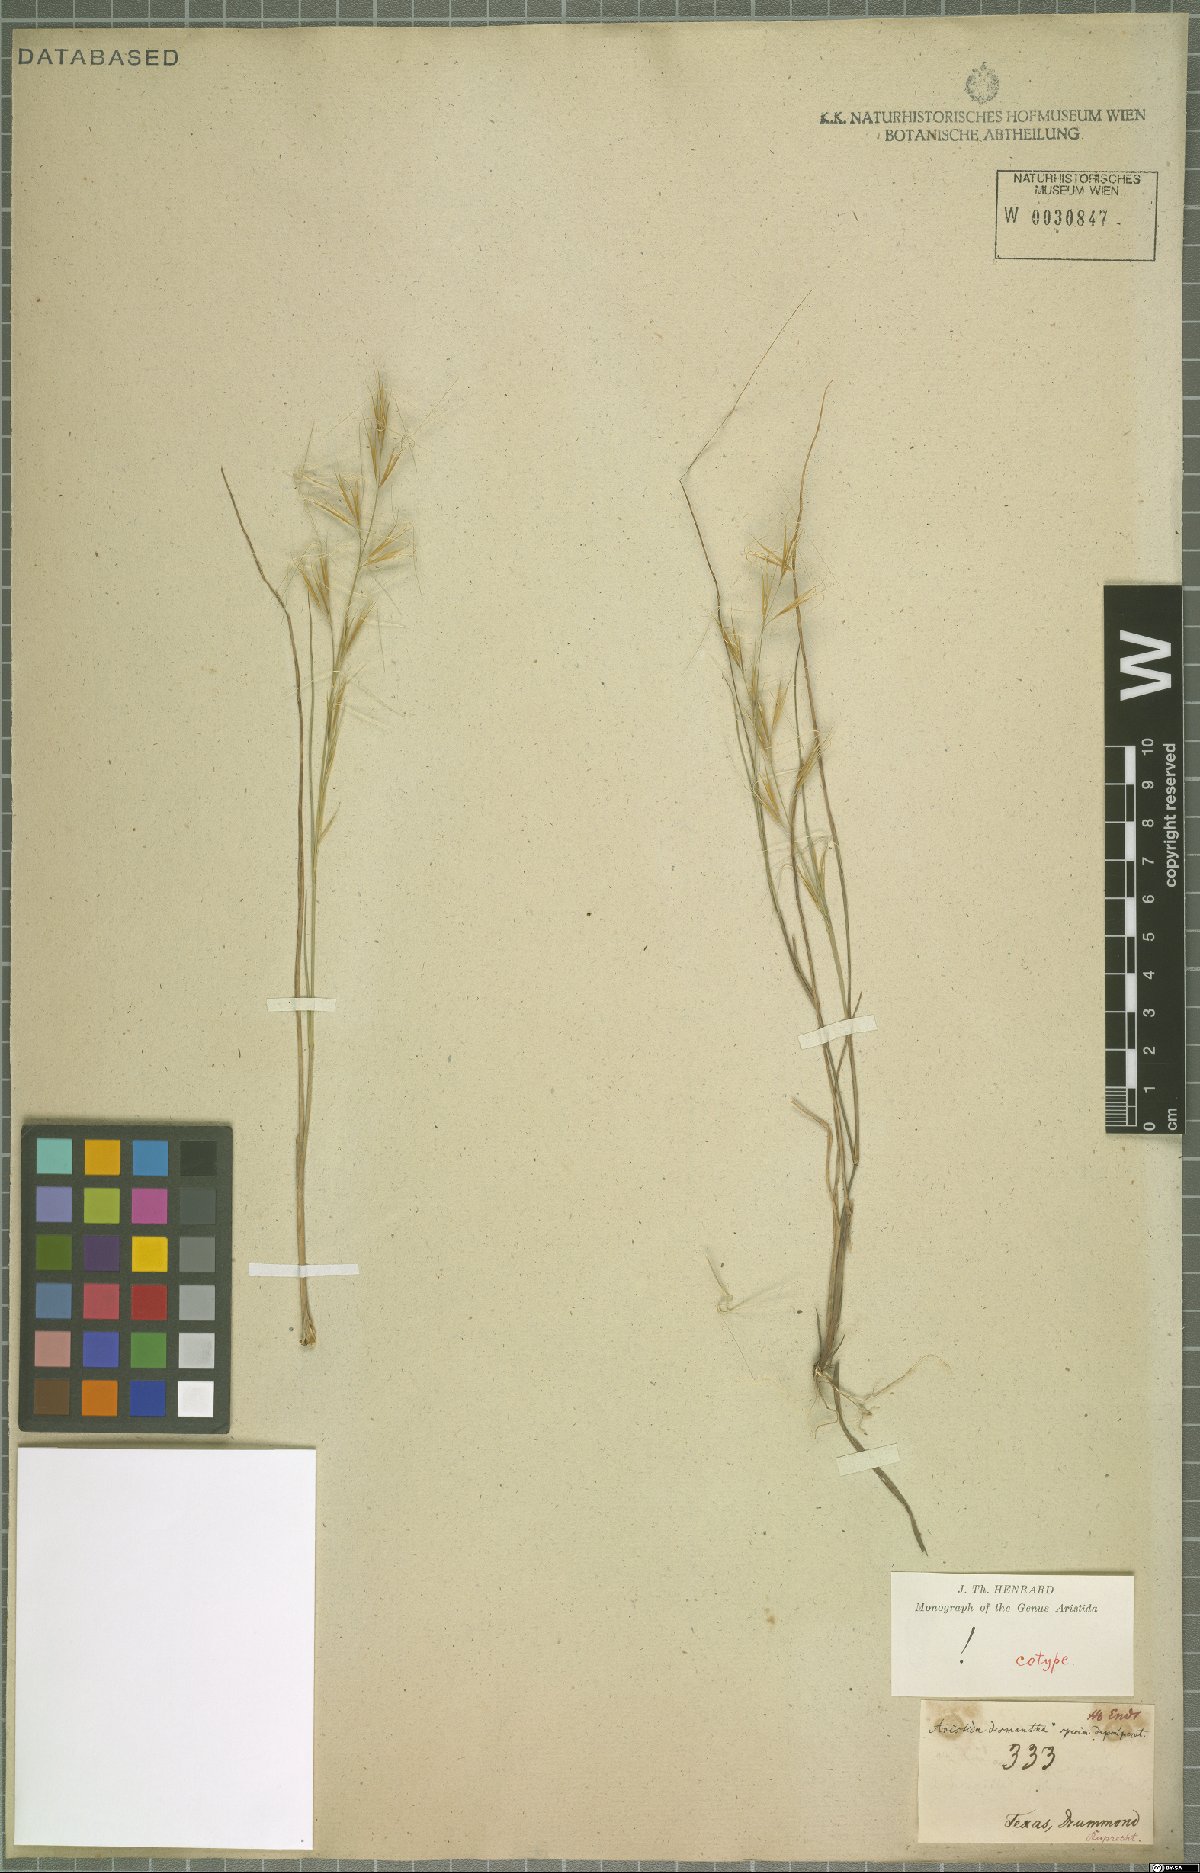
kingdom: Plantae
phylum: Tracheophyta
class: Liliopsida
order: Poales
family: Poaceae
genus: Aristida
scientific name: Aristida desmantha
